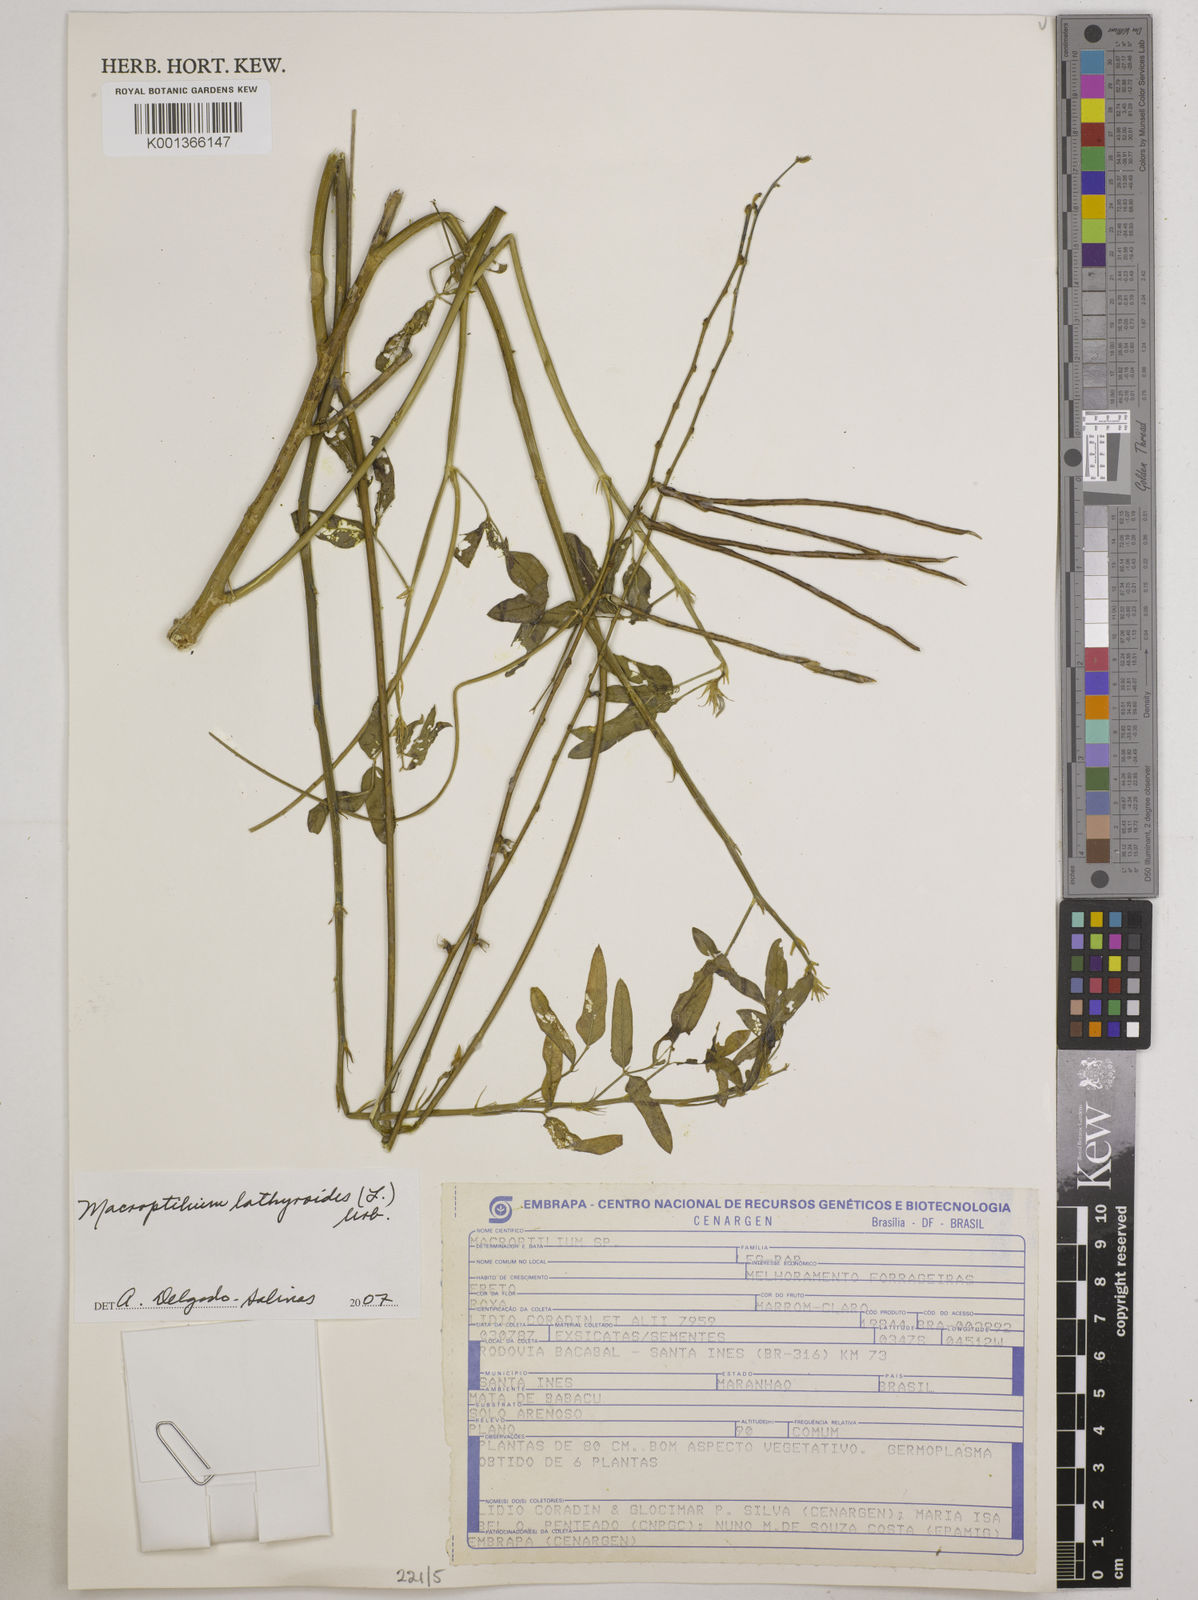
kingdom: Plantae
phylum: Tracheophyta
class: Magnoliopsida
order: Fabales
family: Fabaceae
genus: Macroptilium
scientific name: Macroptilium lathyroides
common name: Wild bushbean
